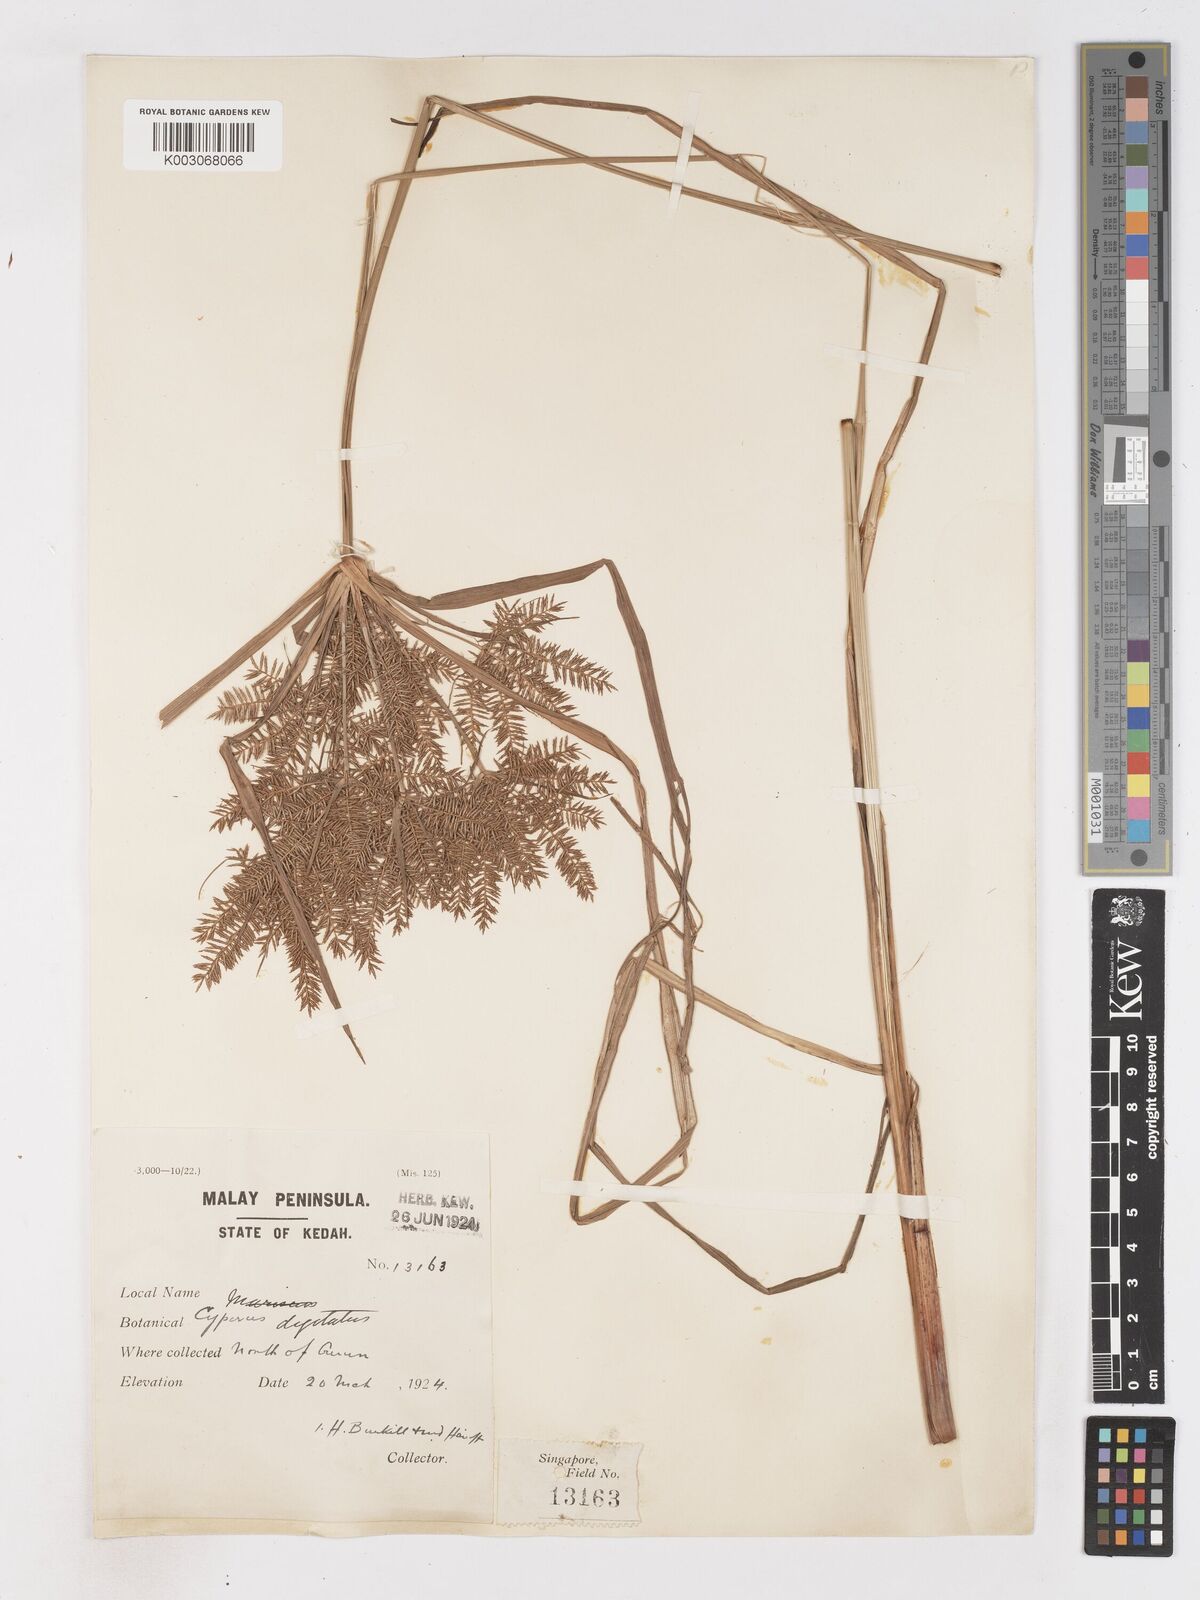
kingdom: Plantae
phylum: Tracheophyta
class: Liliopsida
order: Poales
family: Cyperaceae
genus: Cyperus
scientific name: Cyperus digitatus
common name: Finger flatsedge
